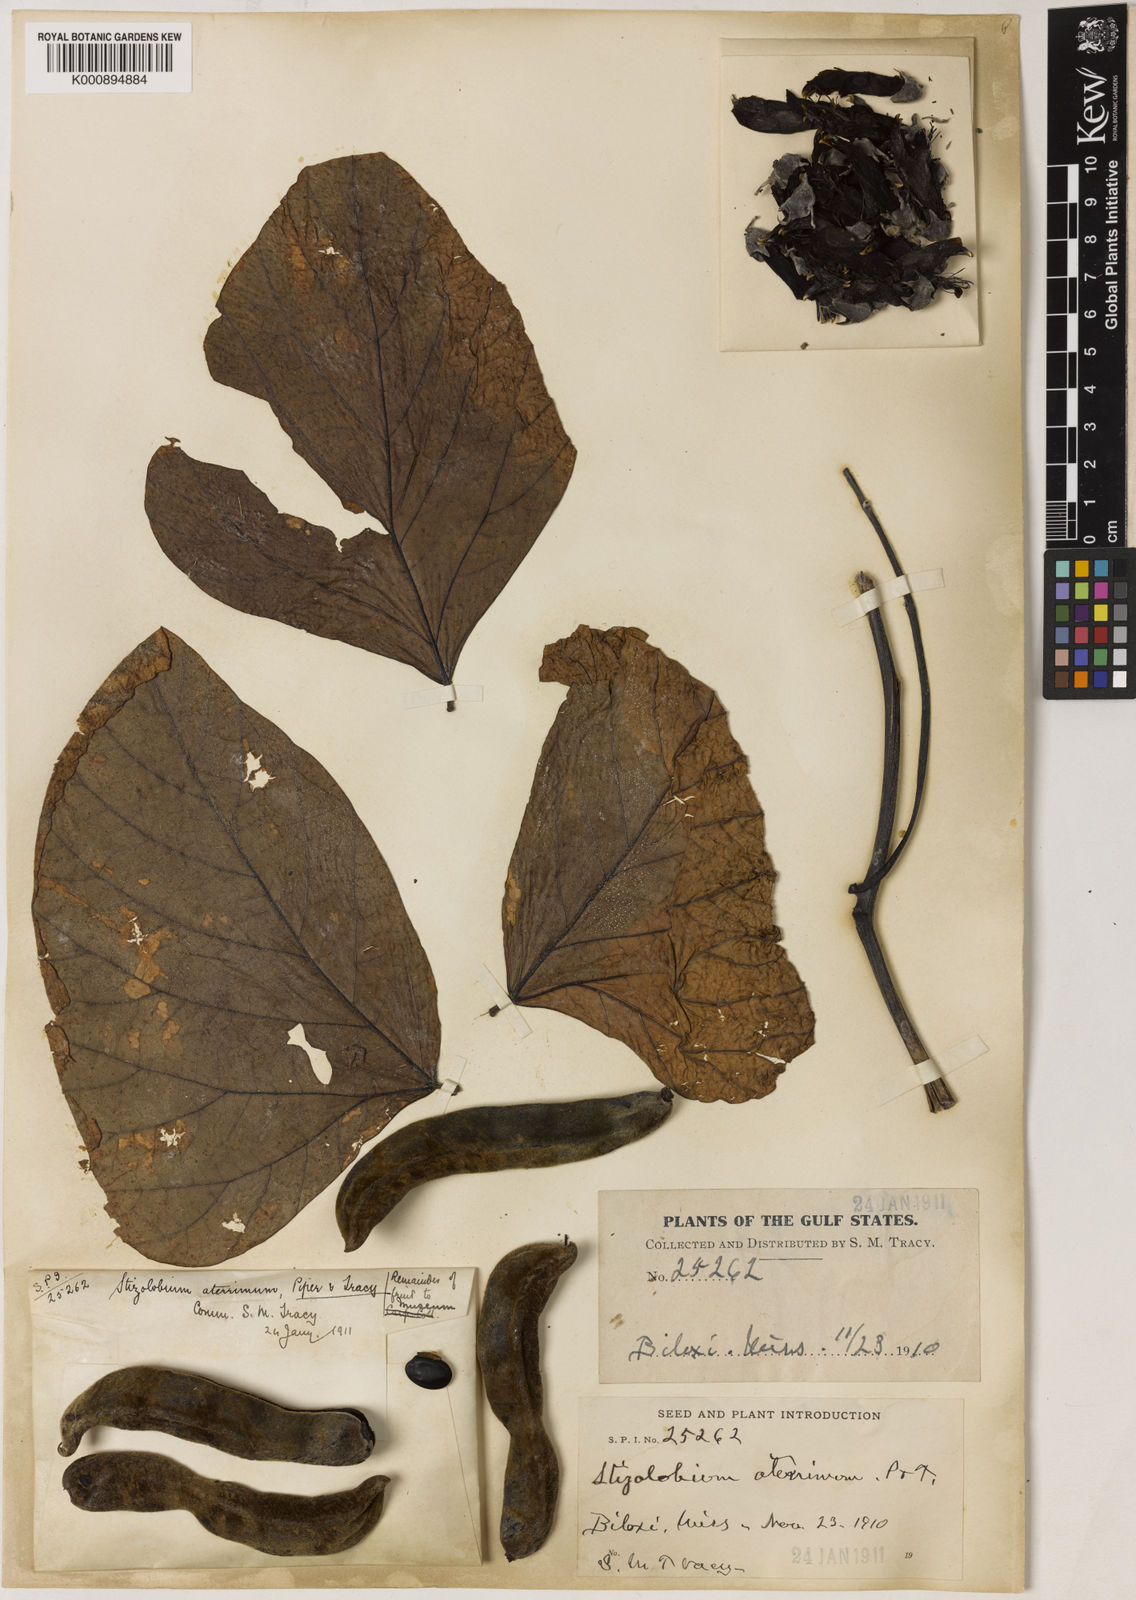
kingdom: Plantae
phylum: Tracheophyta
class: Magnoliopsida
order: Fabales
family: Fabaceae
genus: Mucuna
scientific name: Mucuna pruriens
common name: Cow-itch
